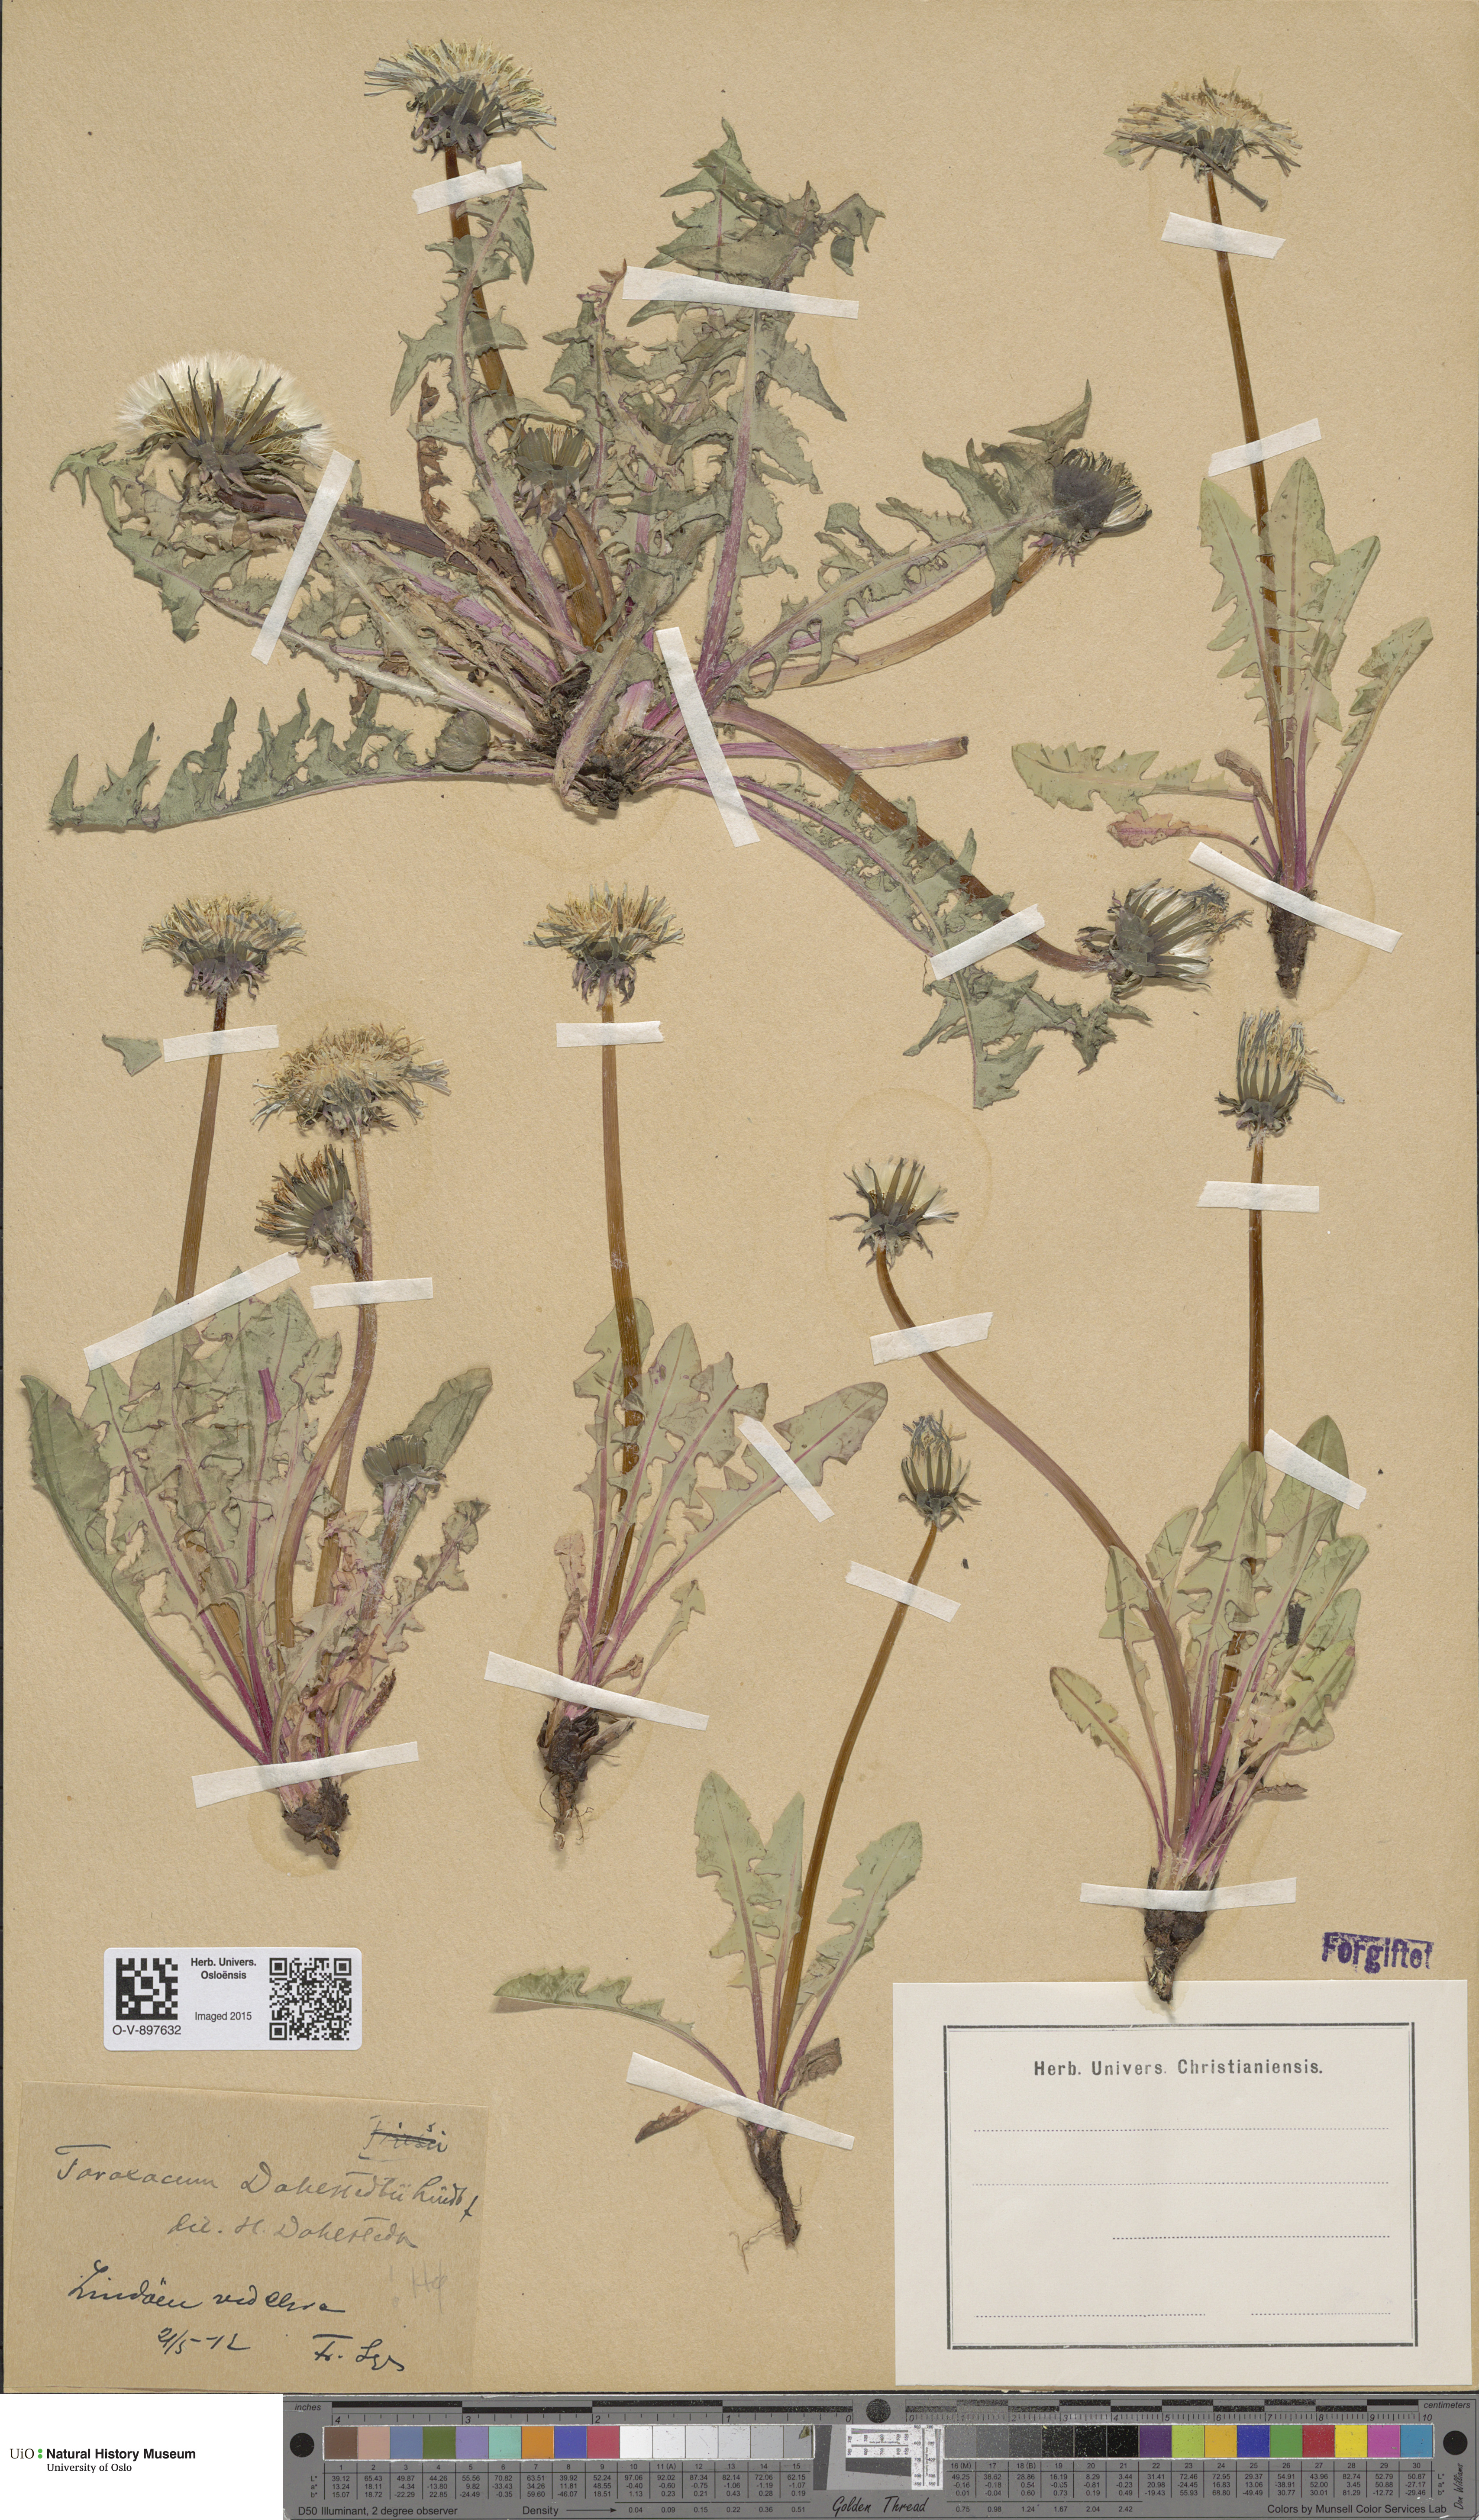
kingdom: Plantae
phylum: Tracheophyta
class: Magnoliopsida
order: Asterales
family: Asteraceae
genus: Taraxacum
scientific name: Taraxacum stenoglossum
